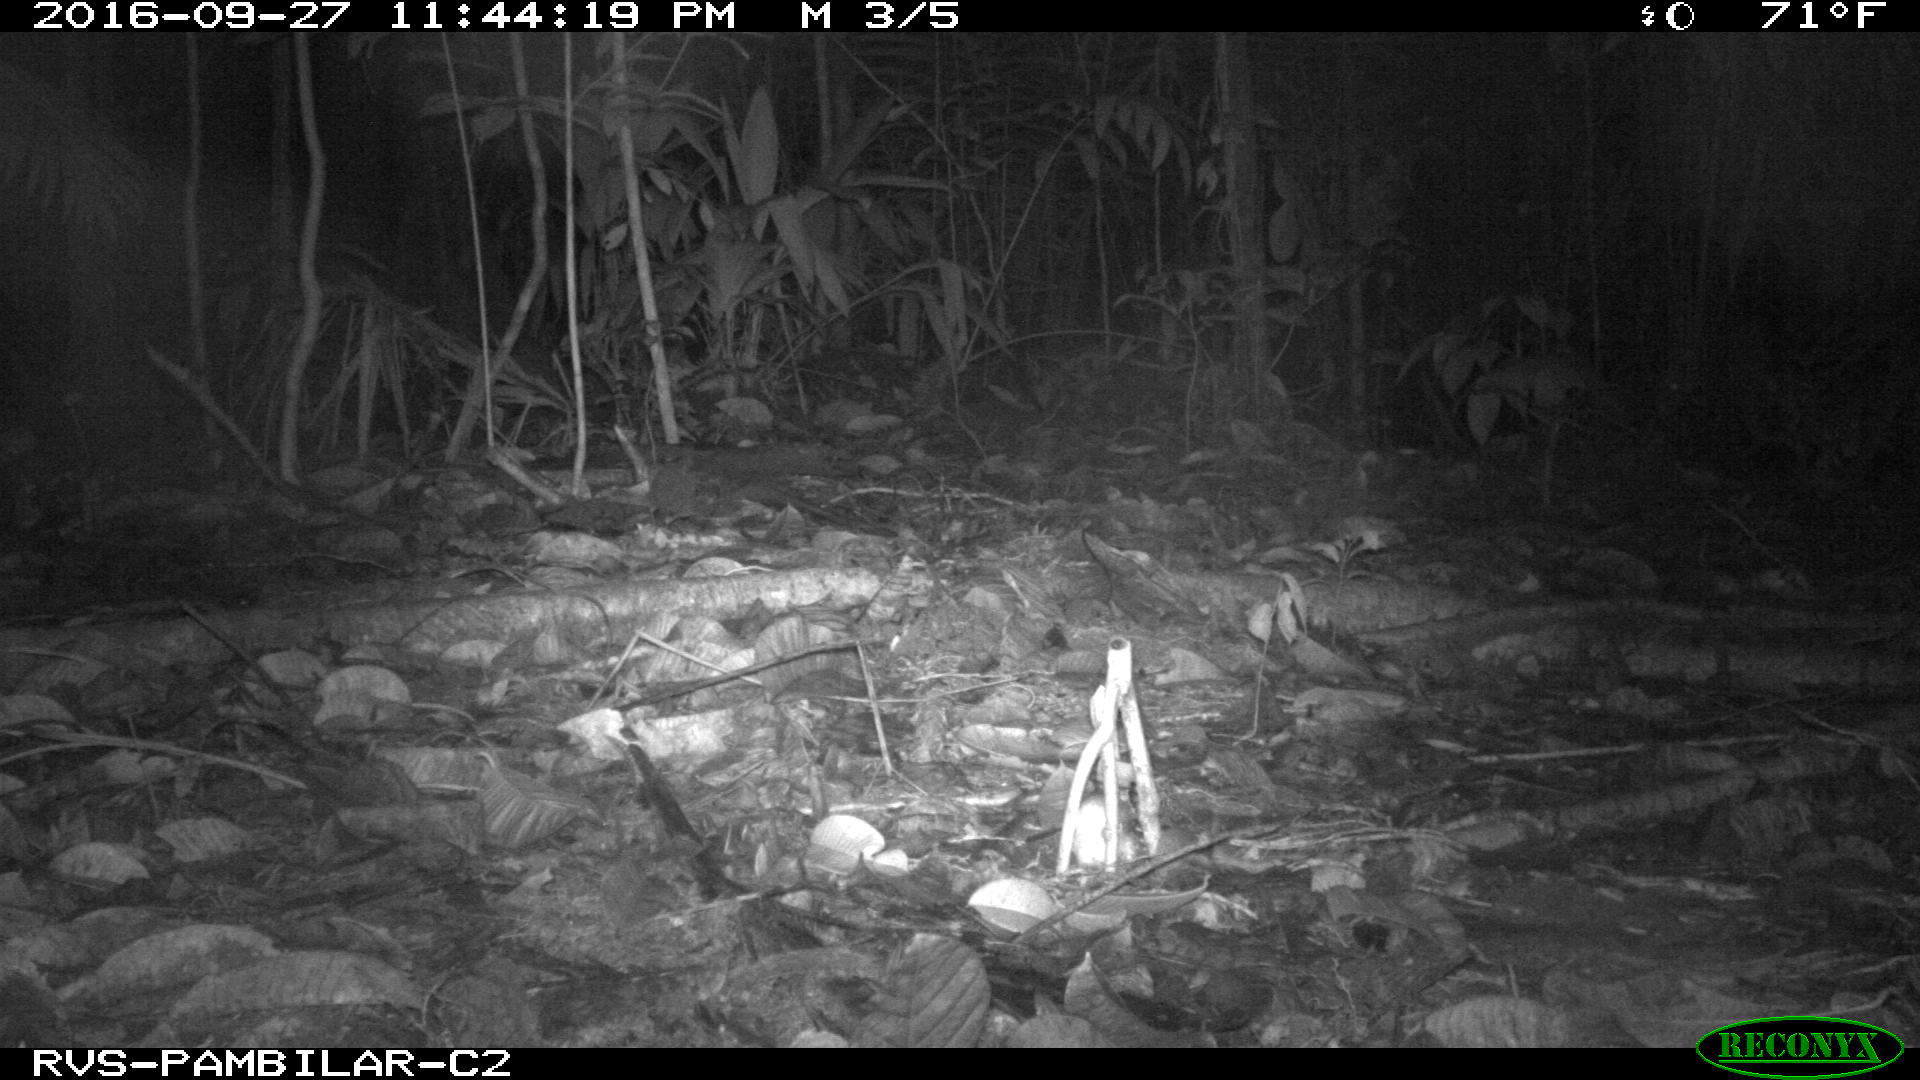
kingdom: Animalia
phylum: Chordata
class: Mammalia
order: Carnivora
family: Felidae
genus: Leopardus
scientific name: Leopardus pardalis
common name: Ocelot
